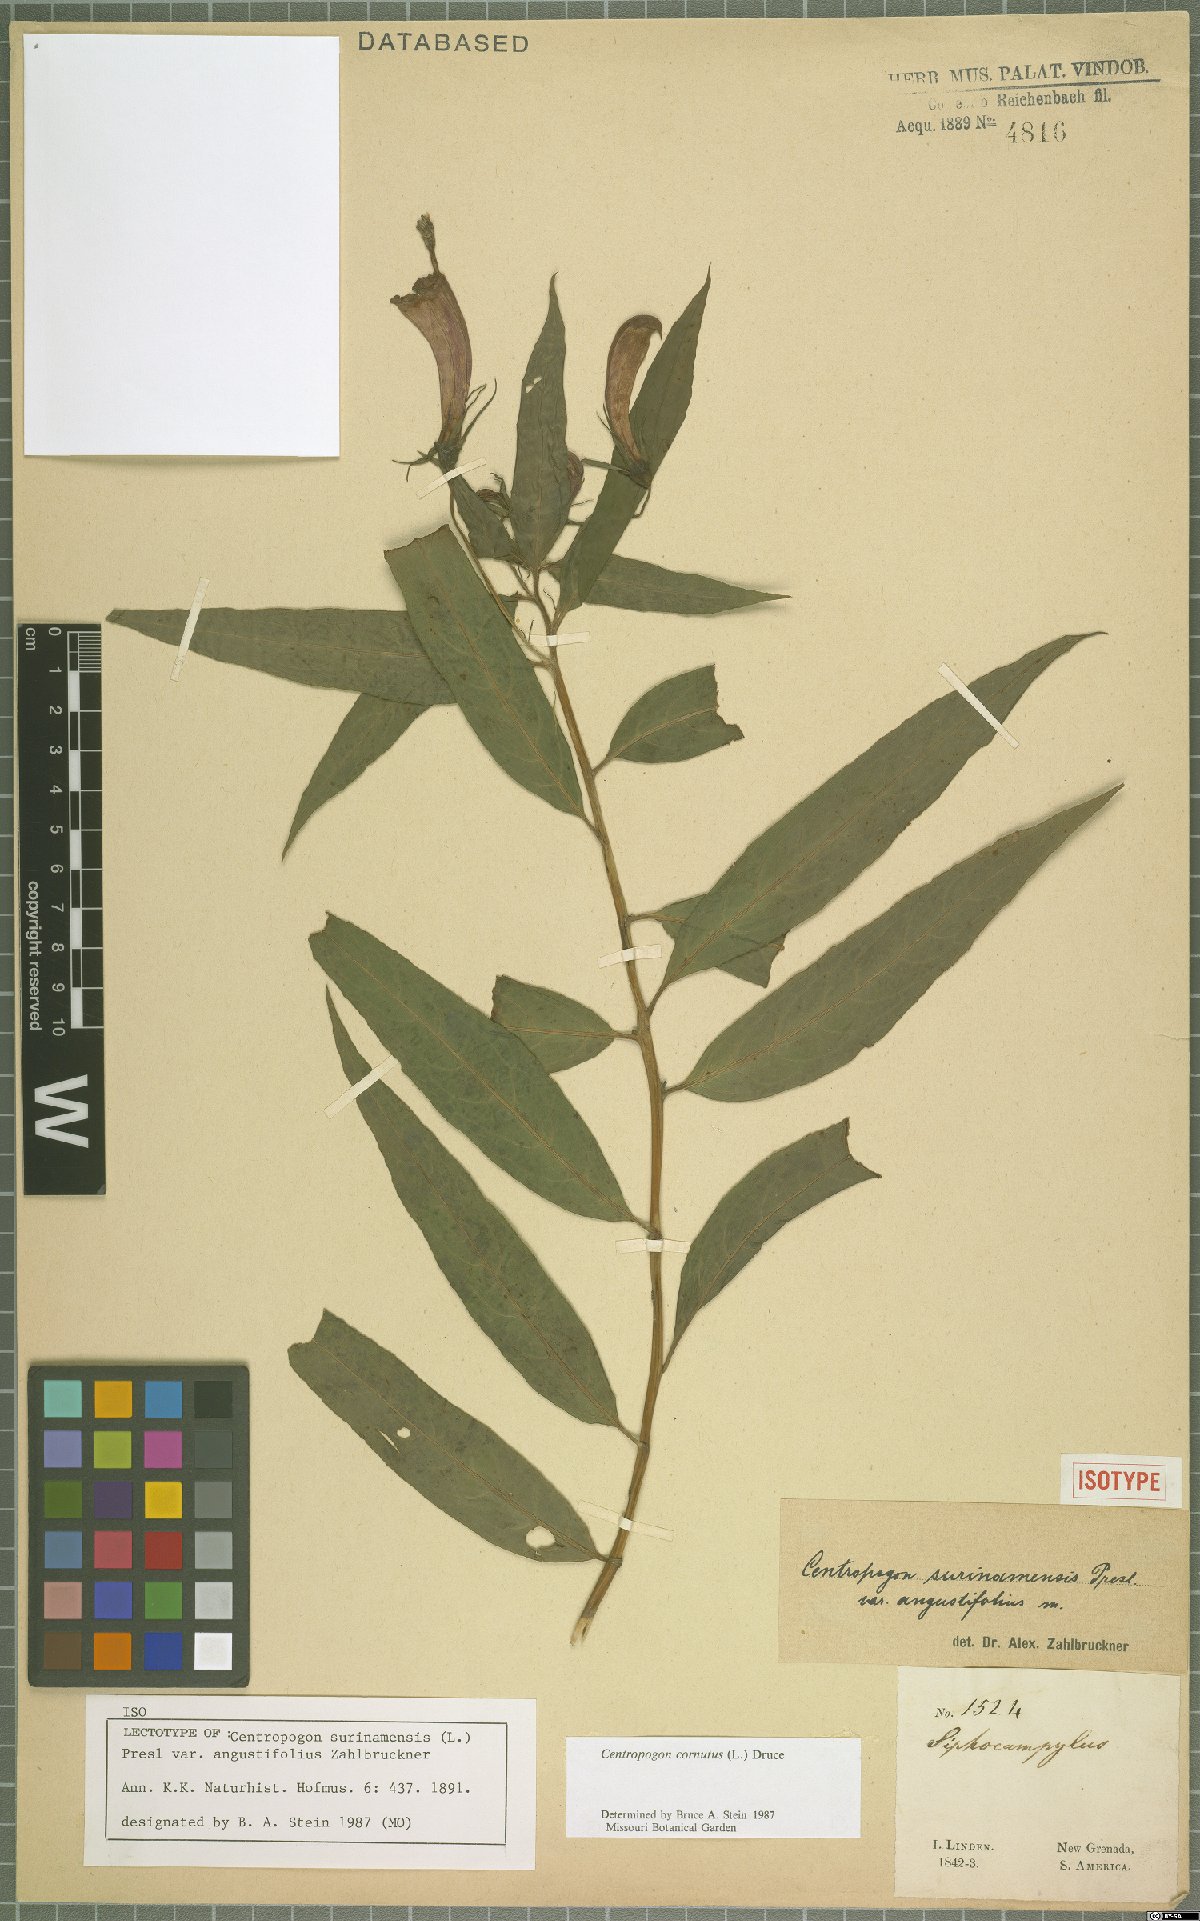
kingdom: Plantae
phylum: Tracheophyta
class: Magnoliopsida
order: Asterales
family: Campanulaceae
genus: Centropogon
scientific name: Centropogon cornutus
